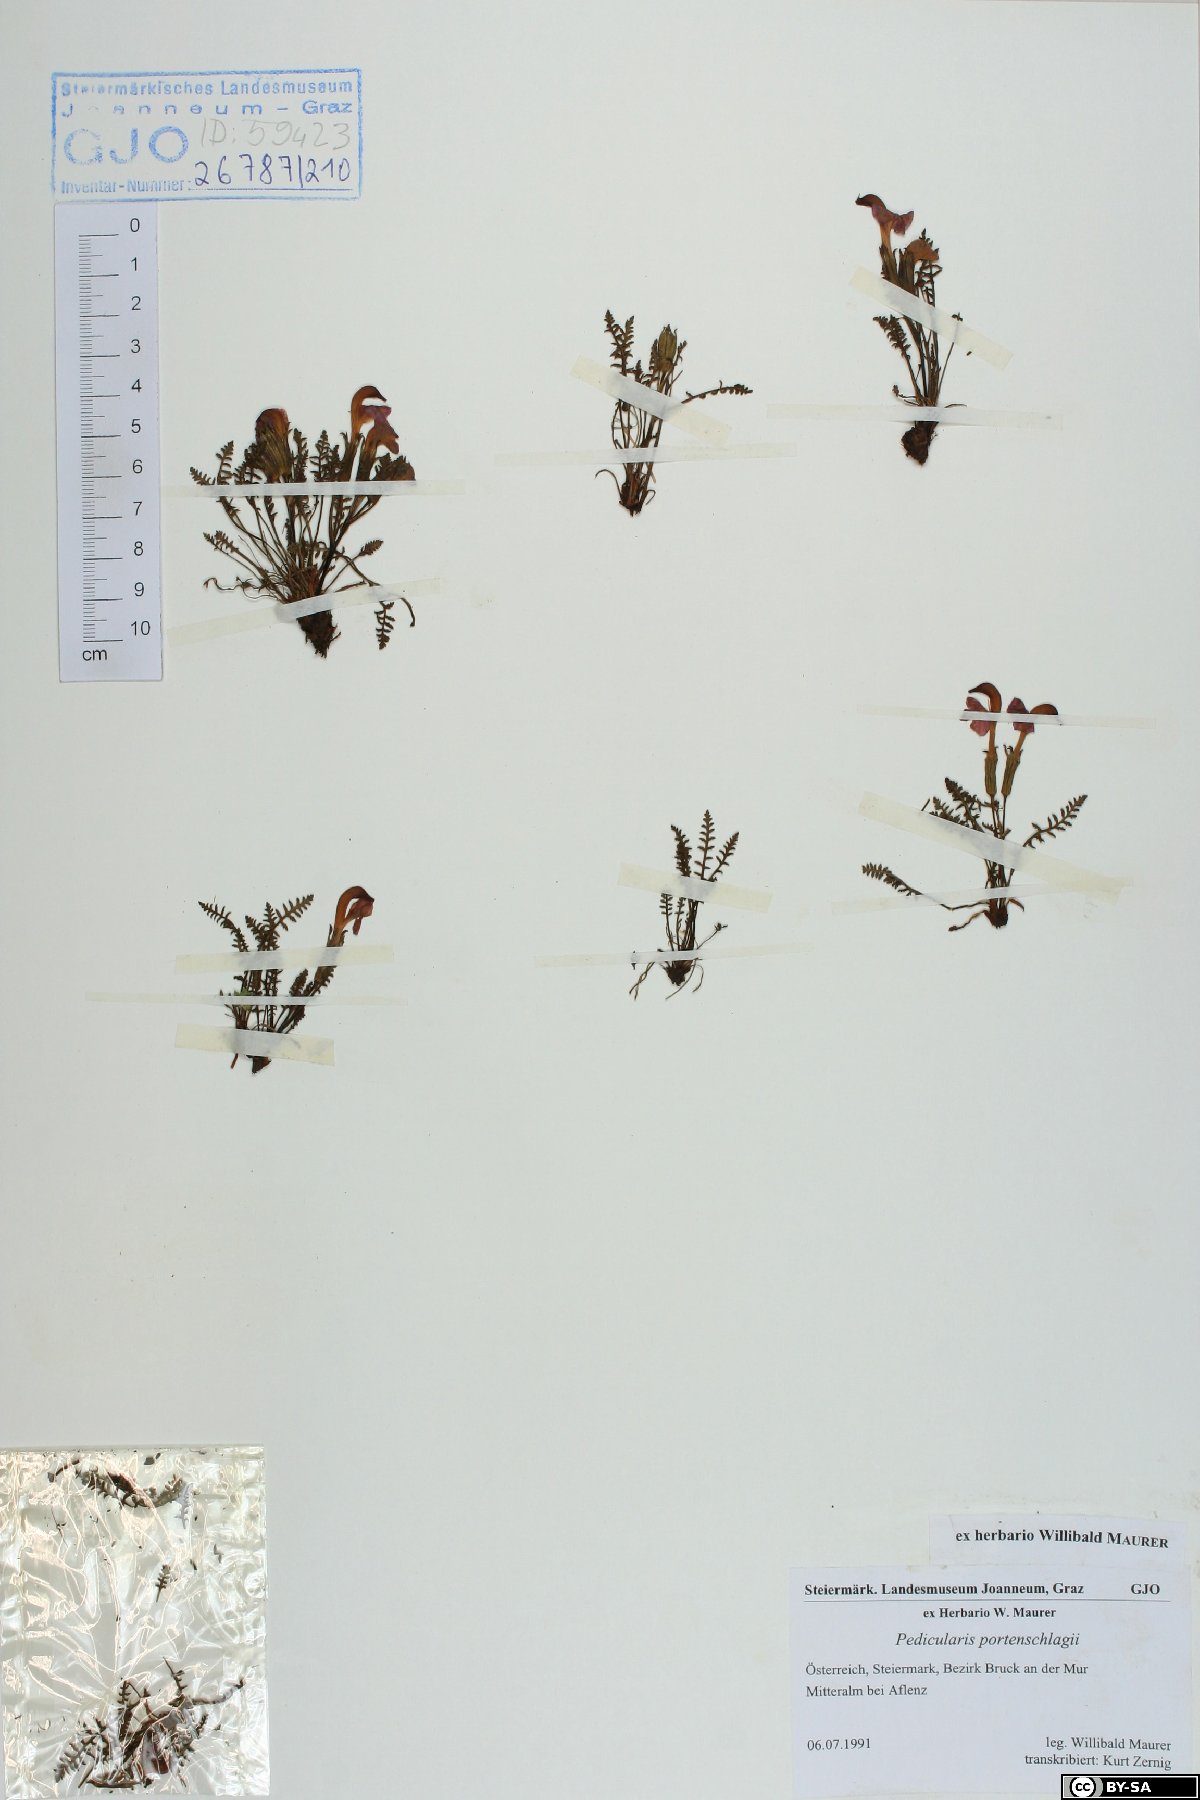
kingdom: Plantae
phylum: Tracheophyta
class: Magnoliopsida
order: Lamiales
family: Orobanchaceae
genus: Pedicularis
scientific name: Pedicularis portenschlagii
